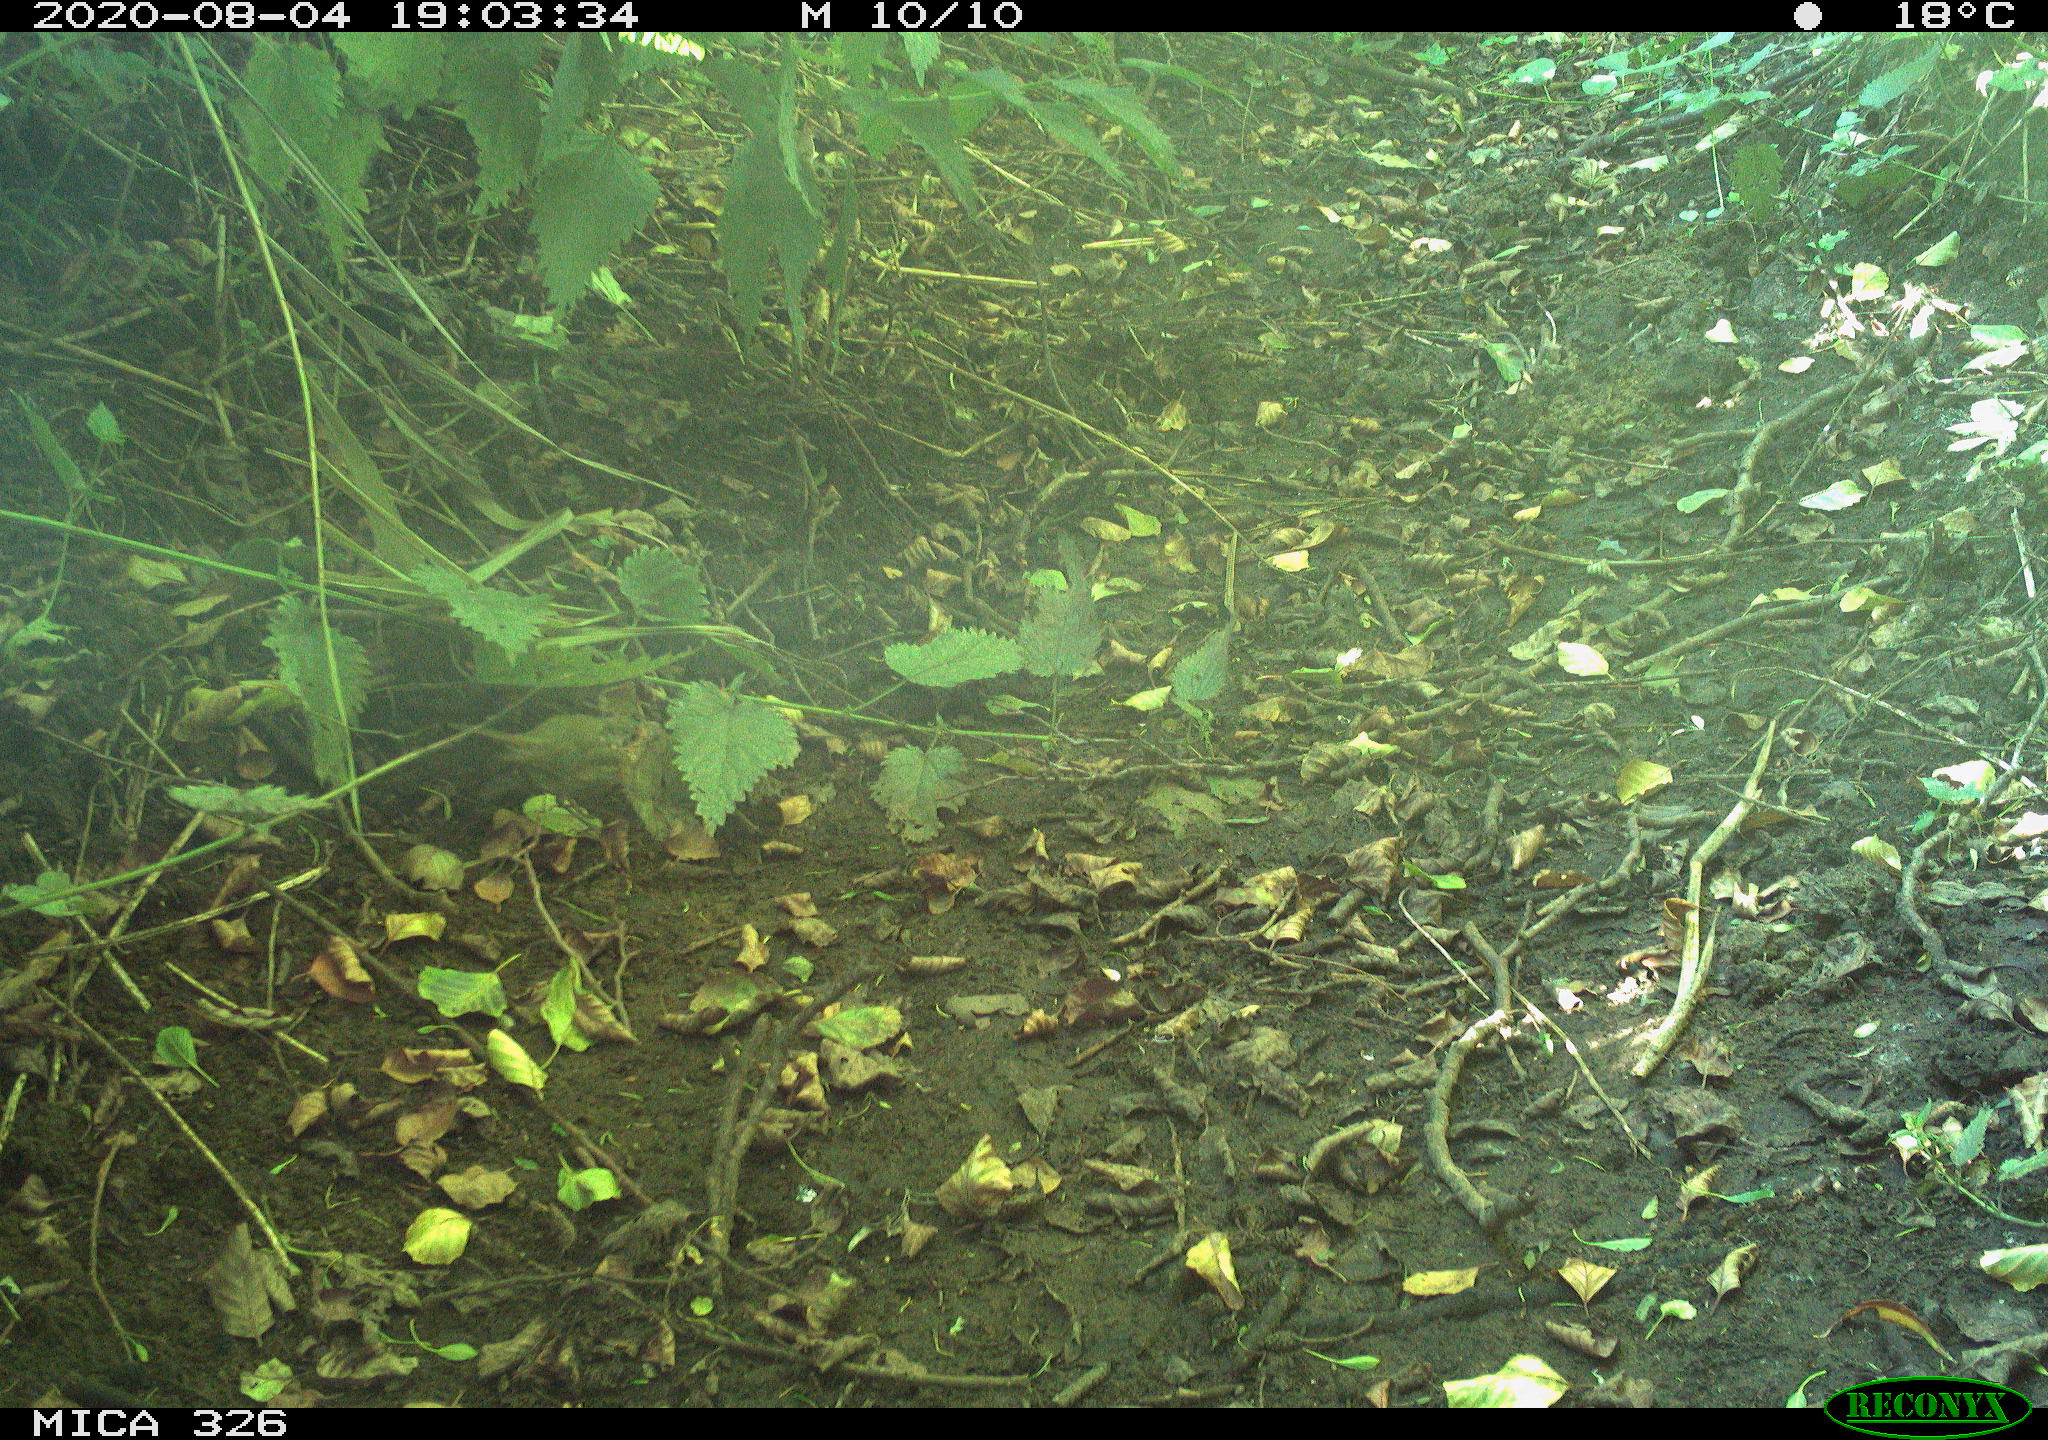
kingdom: Animalia
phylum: Chordata
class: Aves
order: Passeriformes
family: Muscicapidae
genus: Erithacus
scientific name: Erithacus rubecula
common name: European robin
